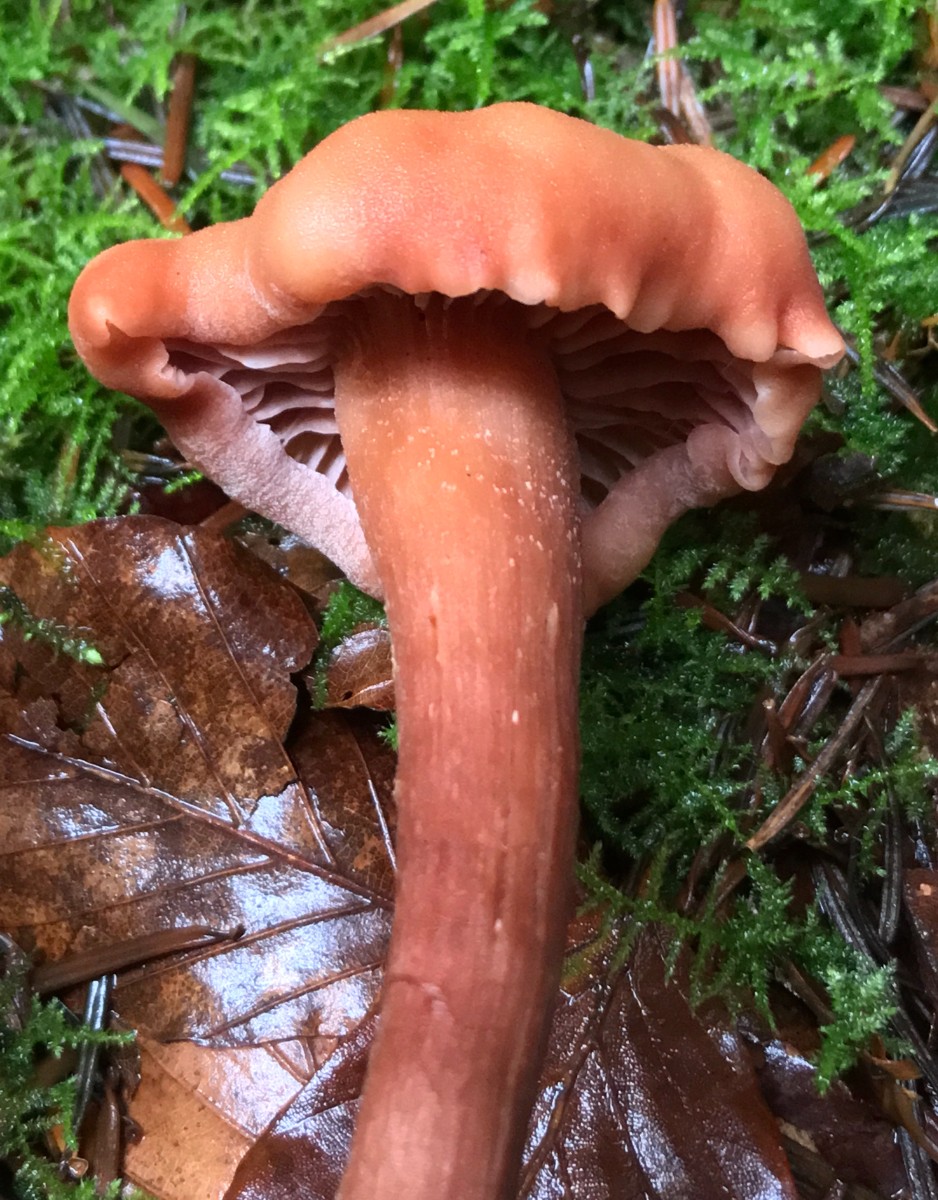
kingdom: Fungi
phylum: Basidiomycota
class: Agaricomycetes
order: Agaricales
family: Hydnangiaceae
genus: Laccaria
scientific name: Laccaria proxima
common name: stor ametysthat
